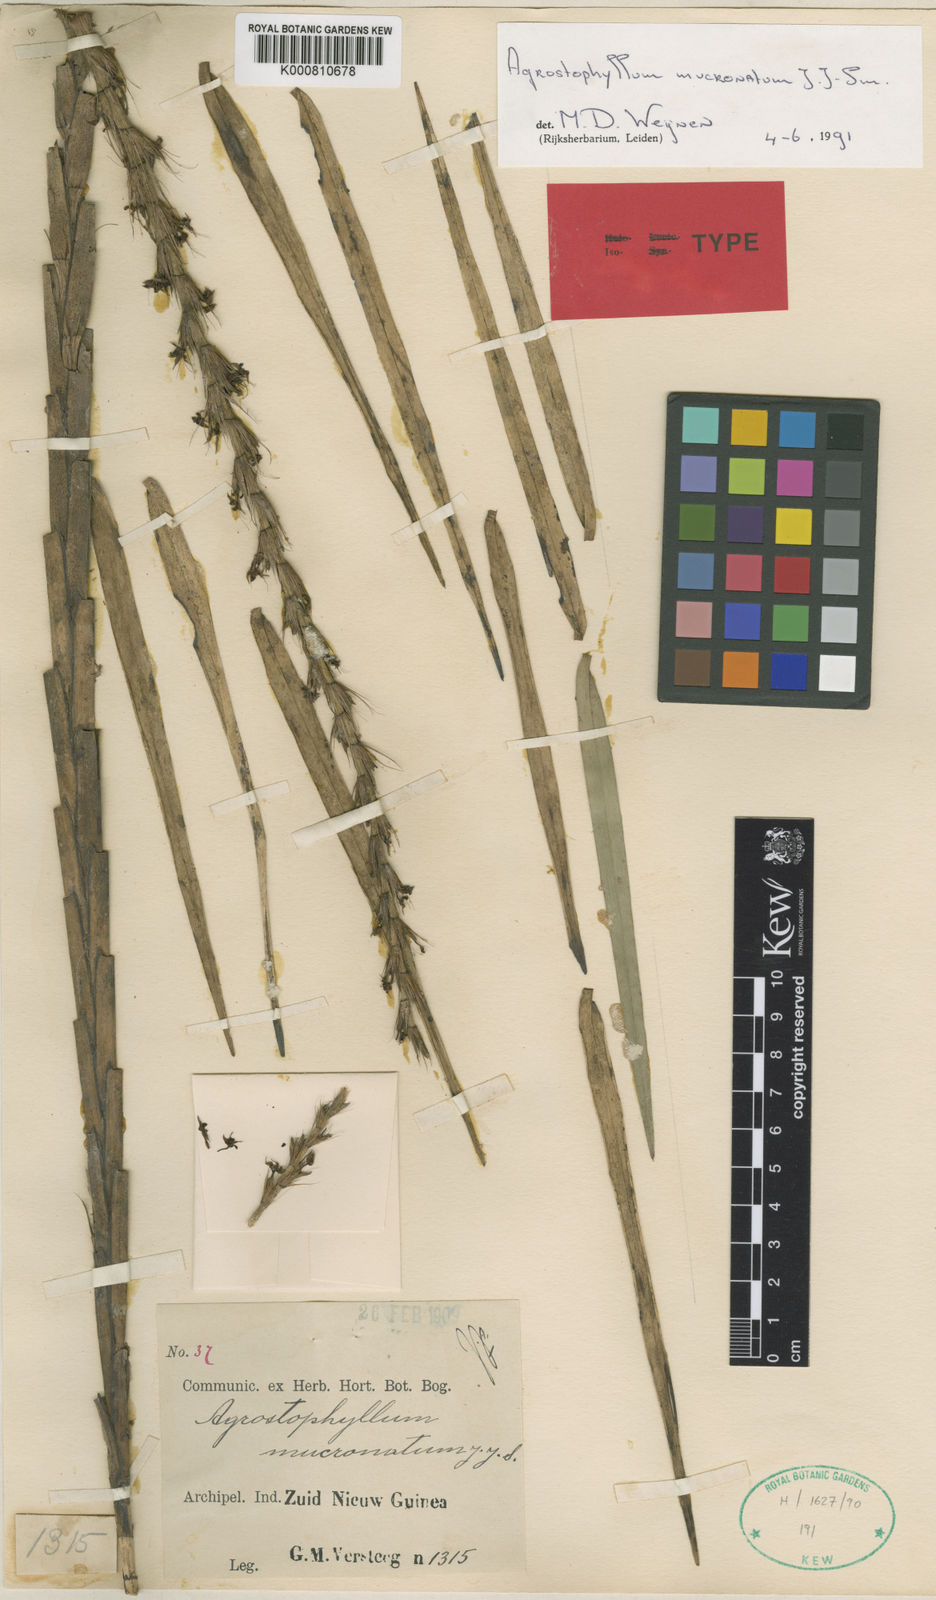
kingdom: Plantae
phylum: Tracheophyta
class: Liliopsida
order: Asparagales
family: Orchidaceae
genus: Agrostophyllum
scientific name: Agrostophyllum mucronatum
